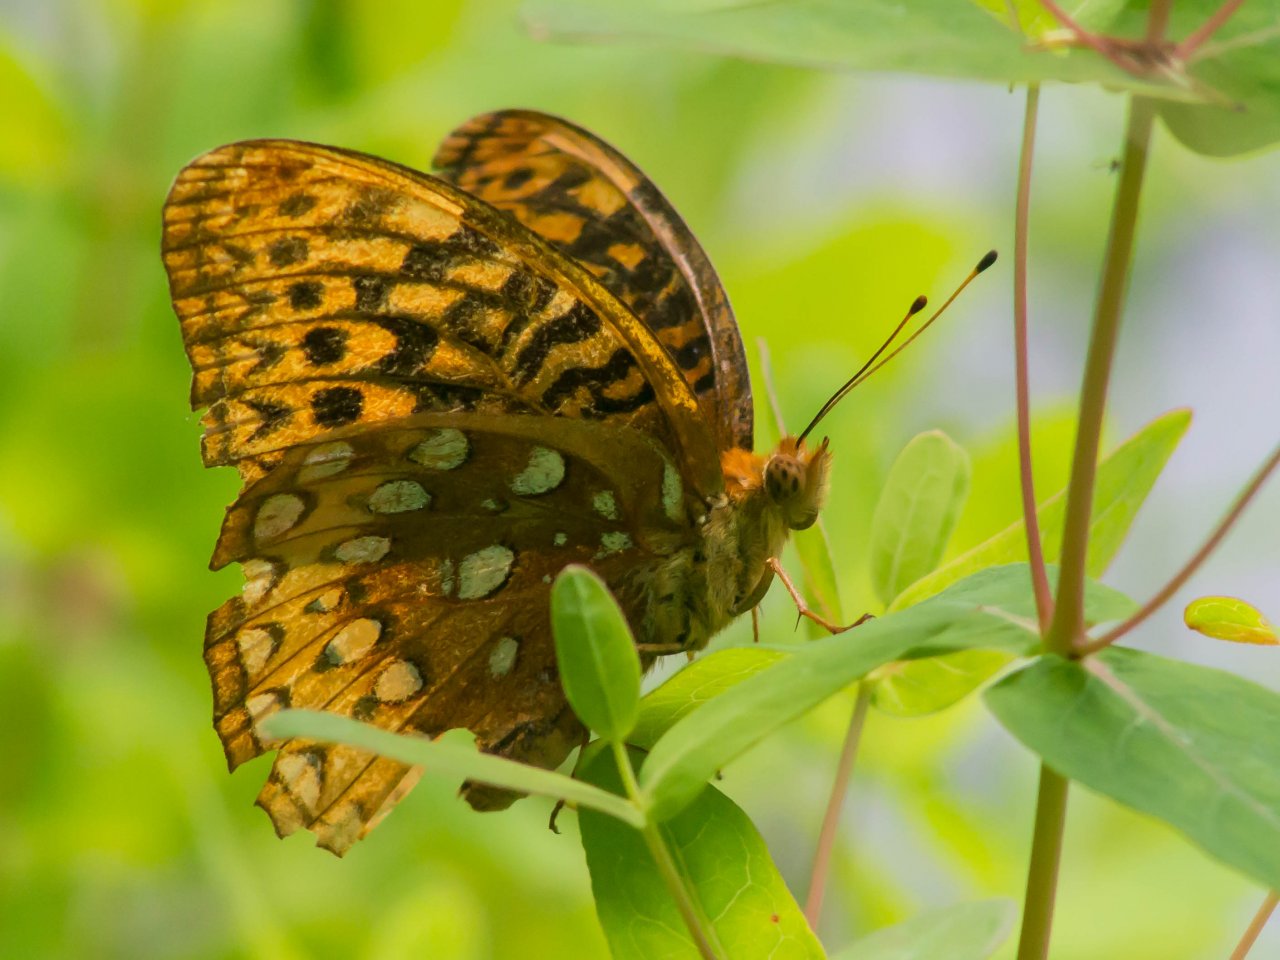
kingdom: Animalia
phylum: Arthropoda
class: Insecta
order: Lepidoptera
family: Nymphalidae
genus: Speyeria
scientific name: Speyeria cybele
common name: Great Spangled Fritillary
